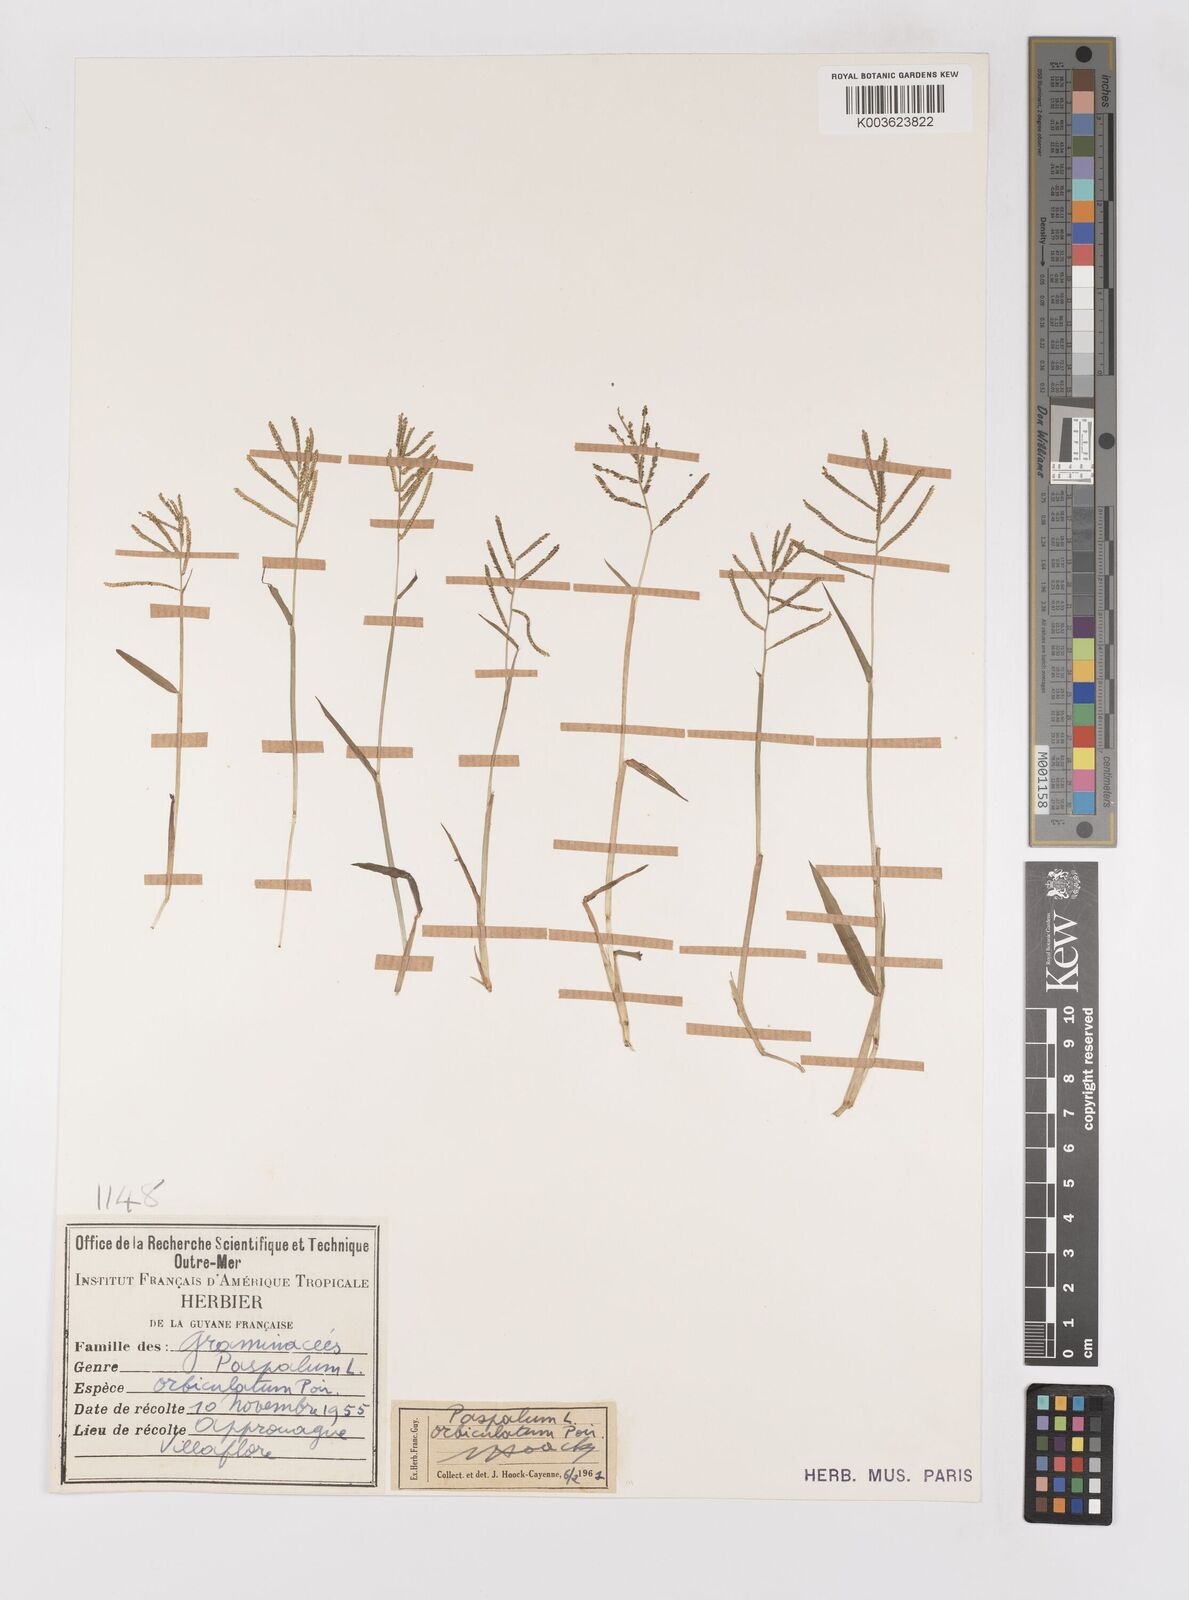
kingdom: Plantae
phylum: Tracheophyta
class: Liliopsida
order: Poales
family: Poaceae
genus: Paspalum
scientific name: Paspalum orbiculatum
